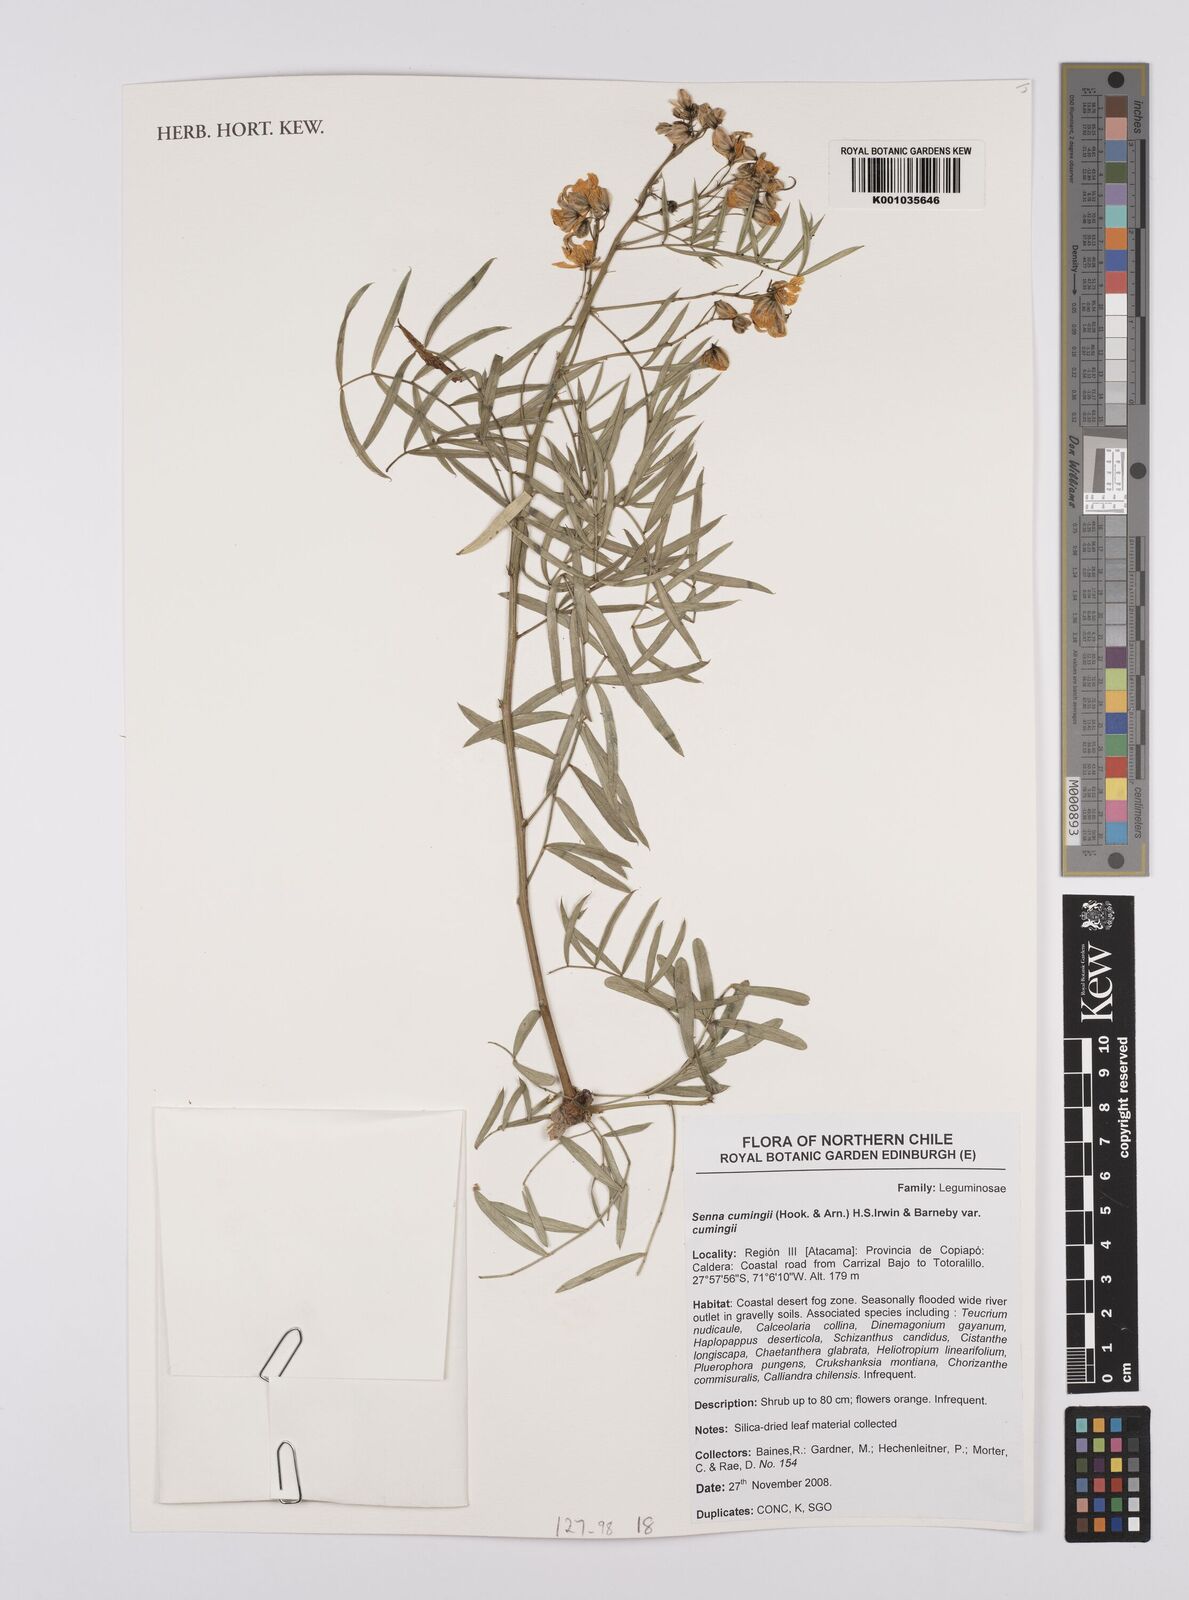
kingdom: Plantae
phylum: Tracheophyta
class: Magnoliopsida
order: Fabales
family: Fabaceae
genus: Senna
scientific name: Senna cumingii
